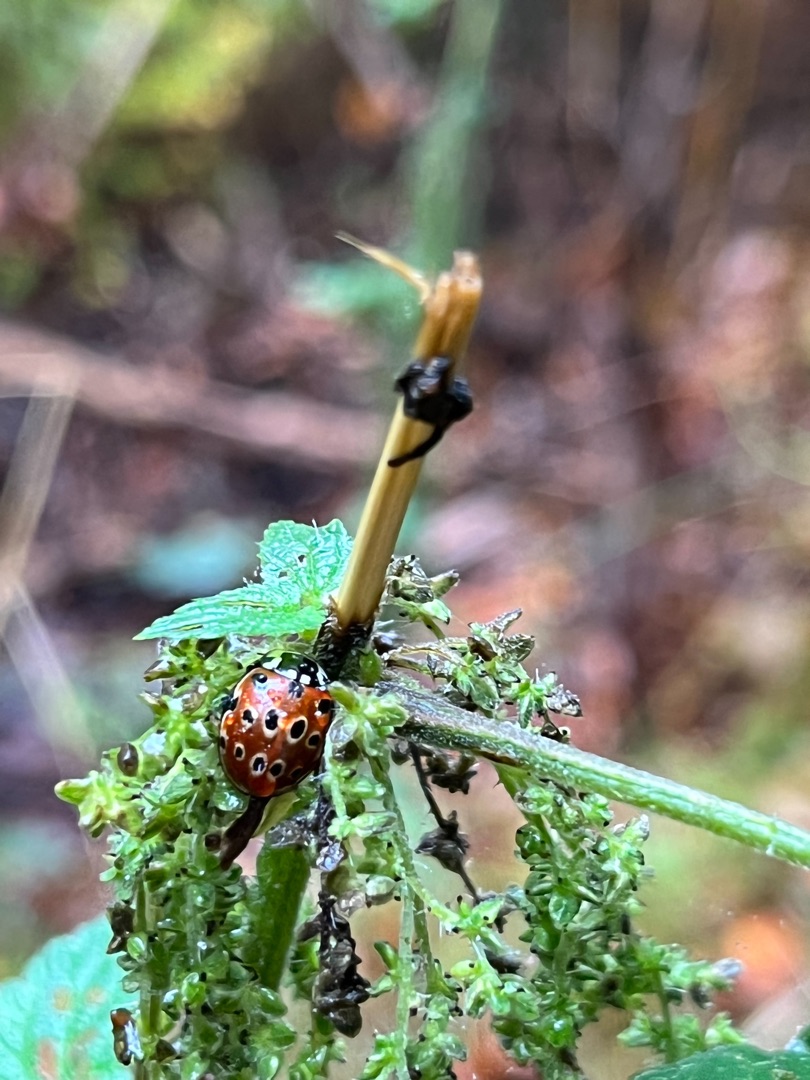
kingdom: Animalia
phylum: Arthropoda
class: Insecta
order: Coleoptera
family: Coccinellidae
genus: Anatis
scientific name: Anatis ocellata
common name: Øjeplettet mariehøne
